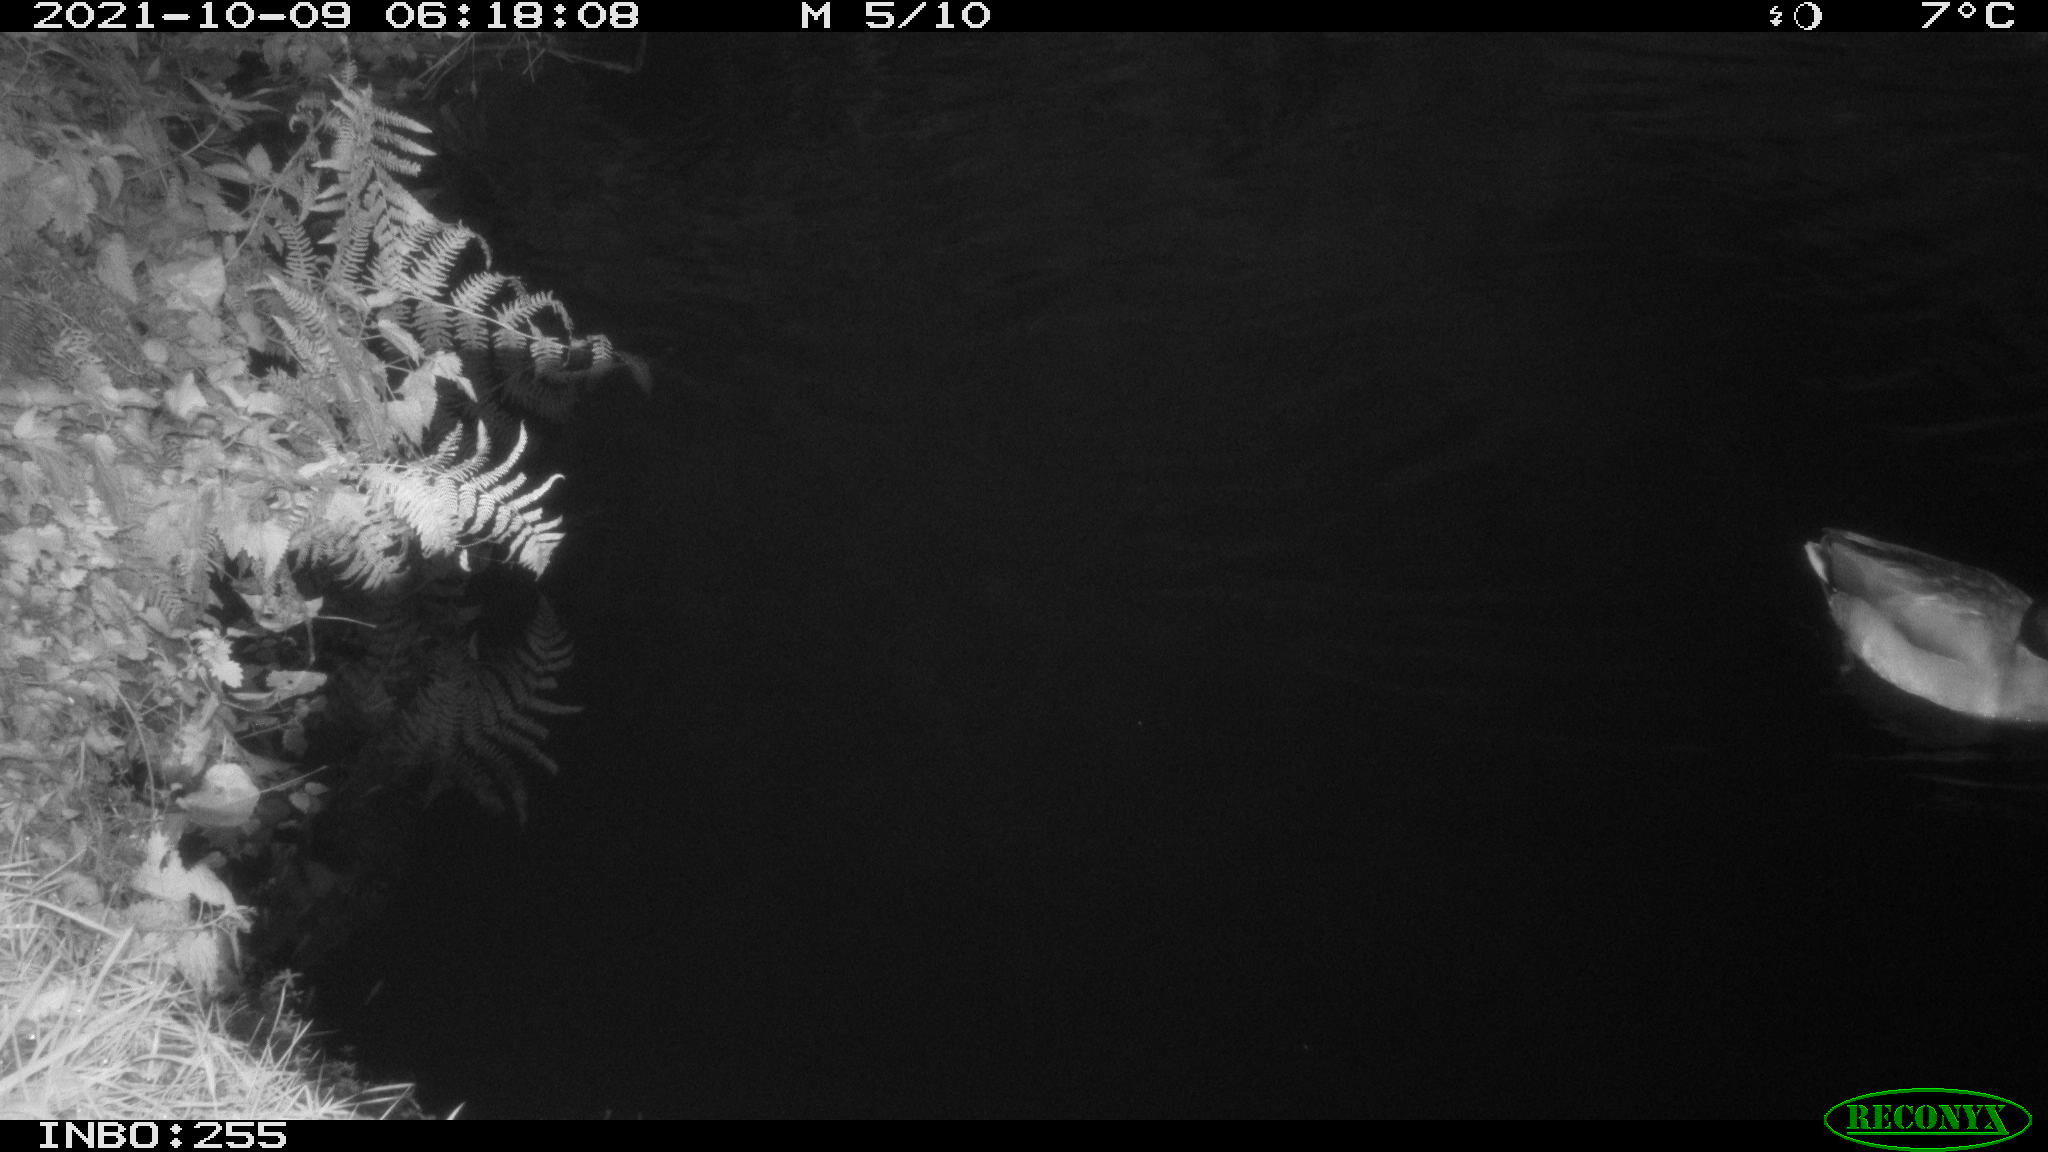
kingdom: Animalia
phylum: Chordata
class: Aves
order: Anseriformes
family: Anatidae
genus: Anas
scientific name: Anas platyrhynchos
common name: Mallard
